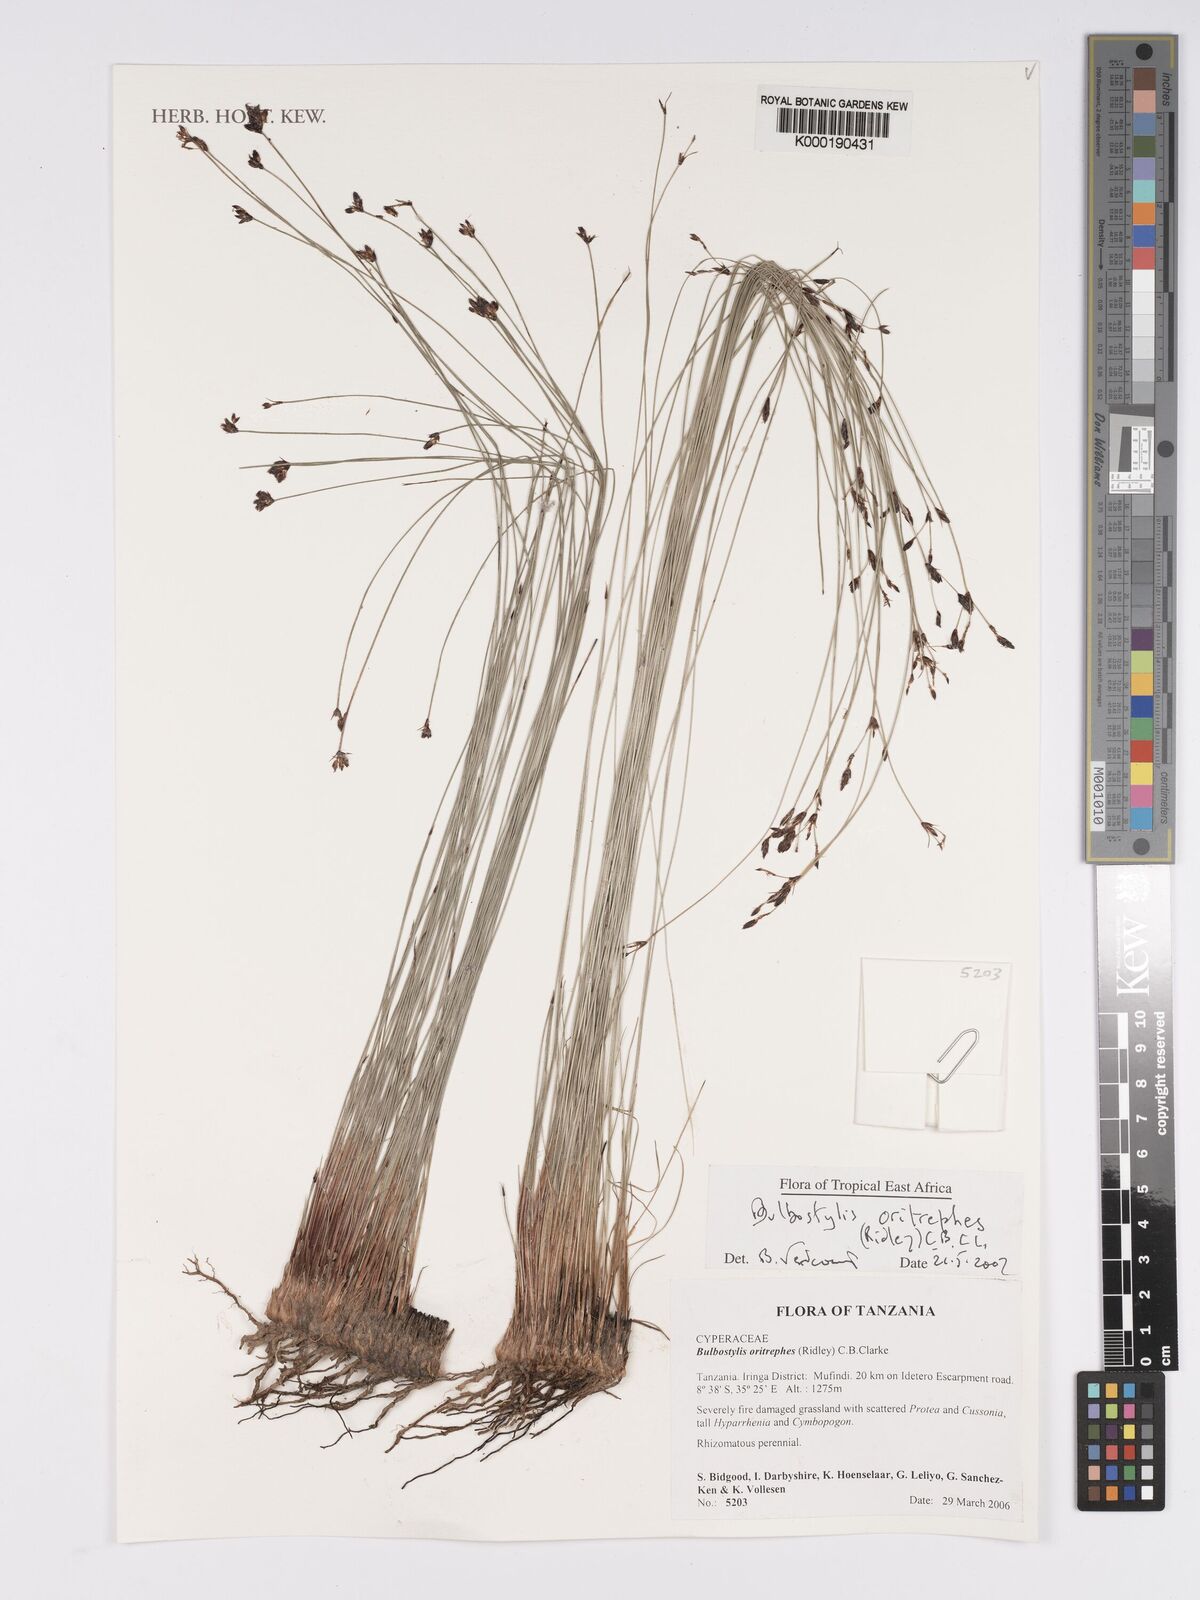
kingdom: Plantae
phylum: Tracheophyta
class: Liliopsida
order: Poales
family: Cyperaceae
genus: Bulbostylis
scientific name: Bulbostylis oritrephes
